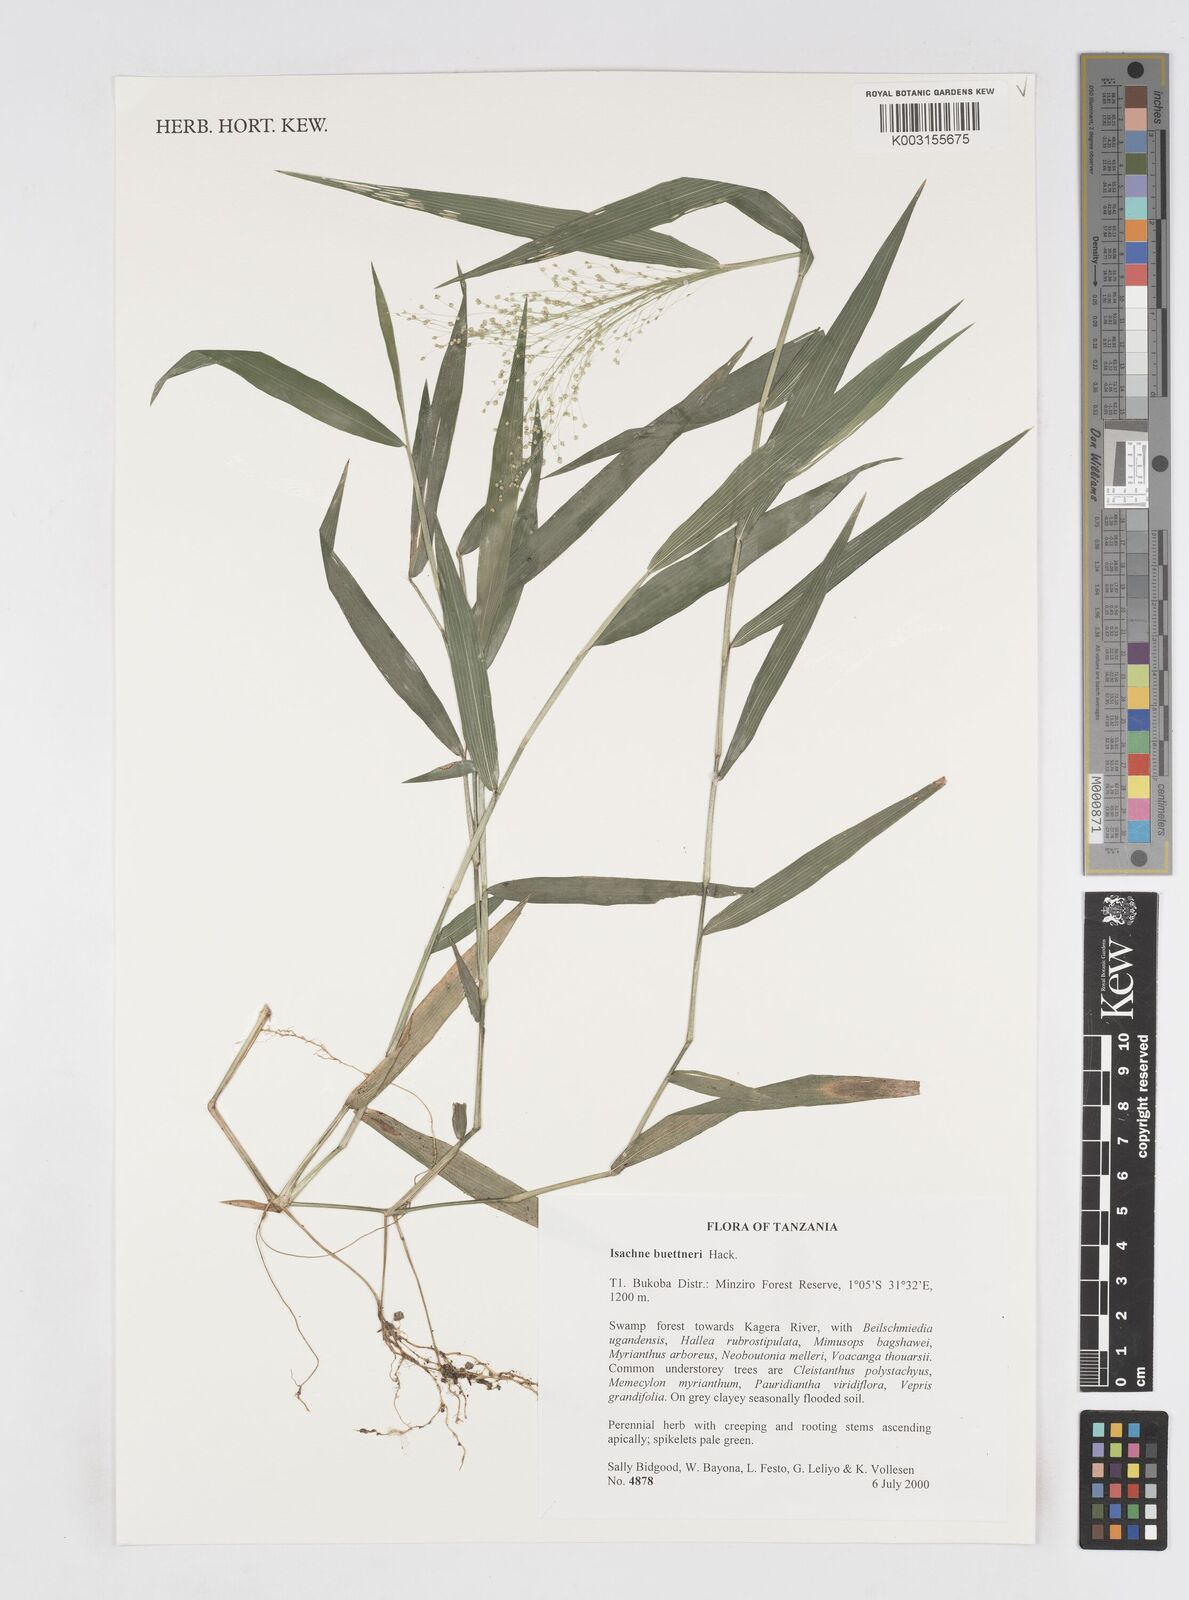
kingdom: Plantae
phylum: Tracheophyta
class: Liliopsida
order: Poales
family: Poaceae
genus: Isachne
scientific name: Isachne albens
